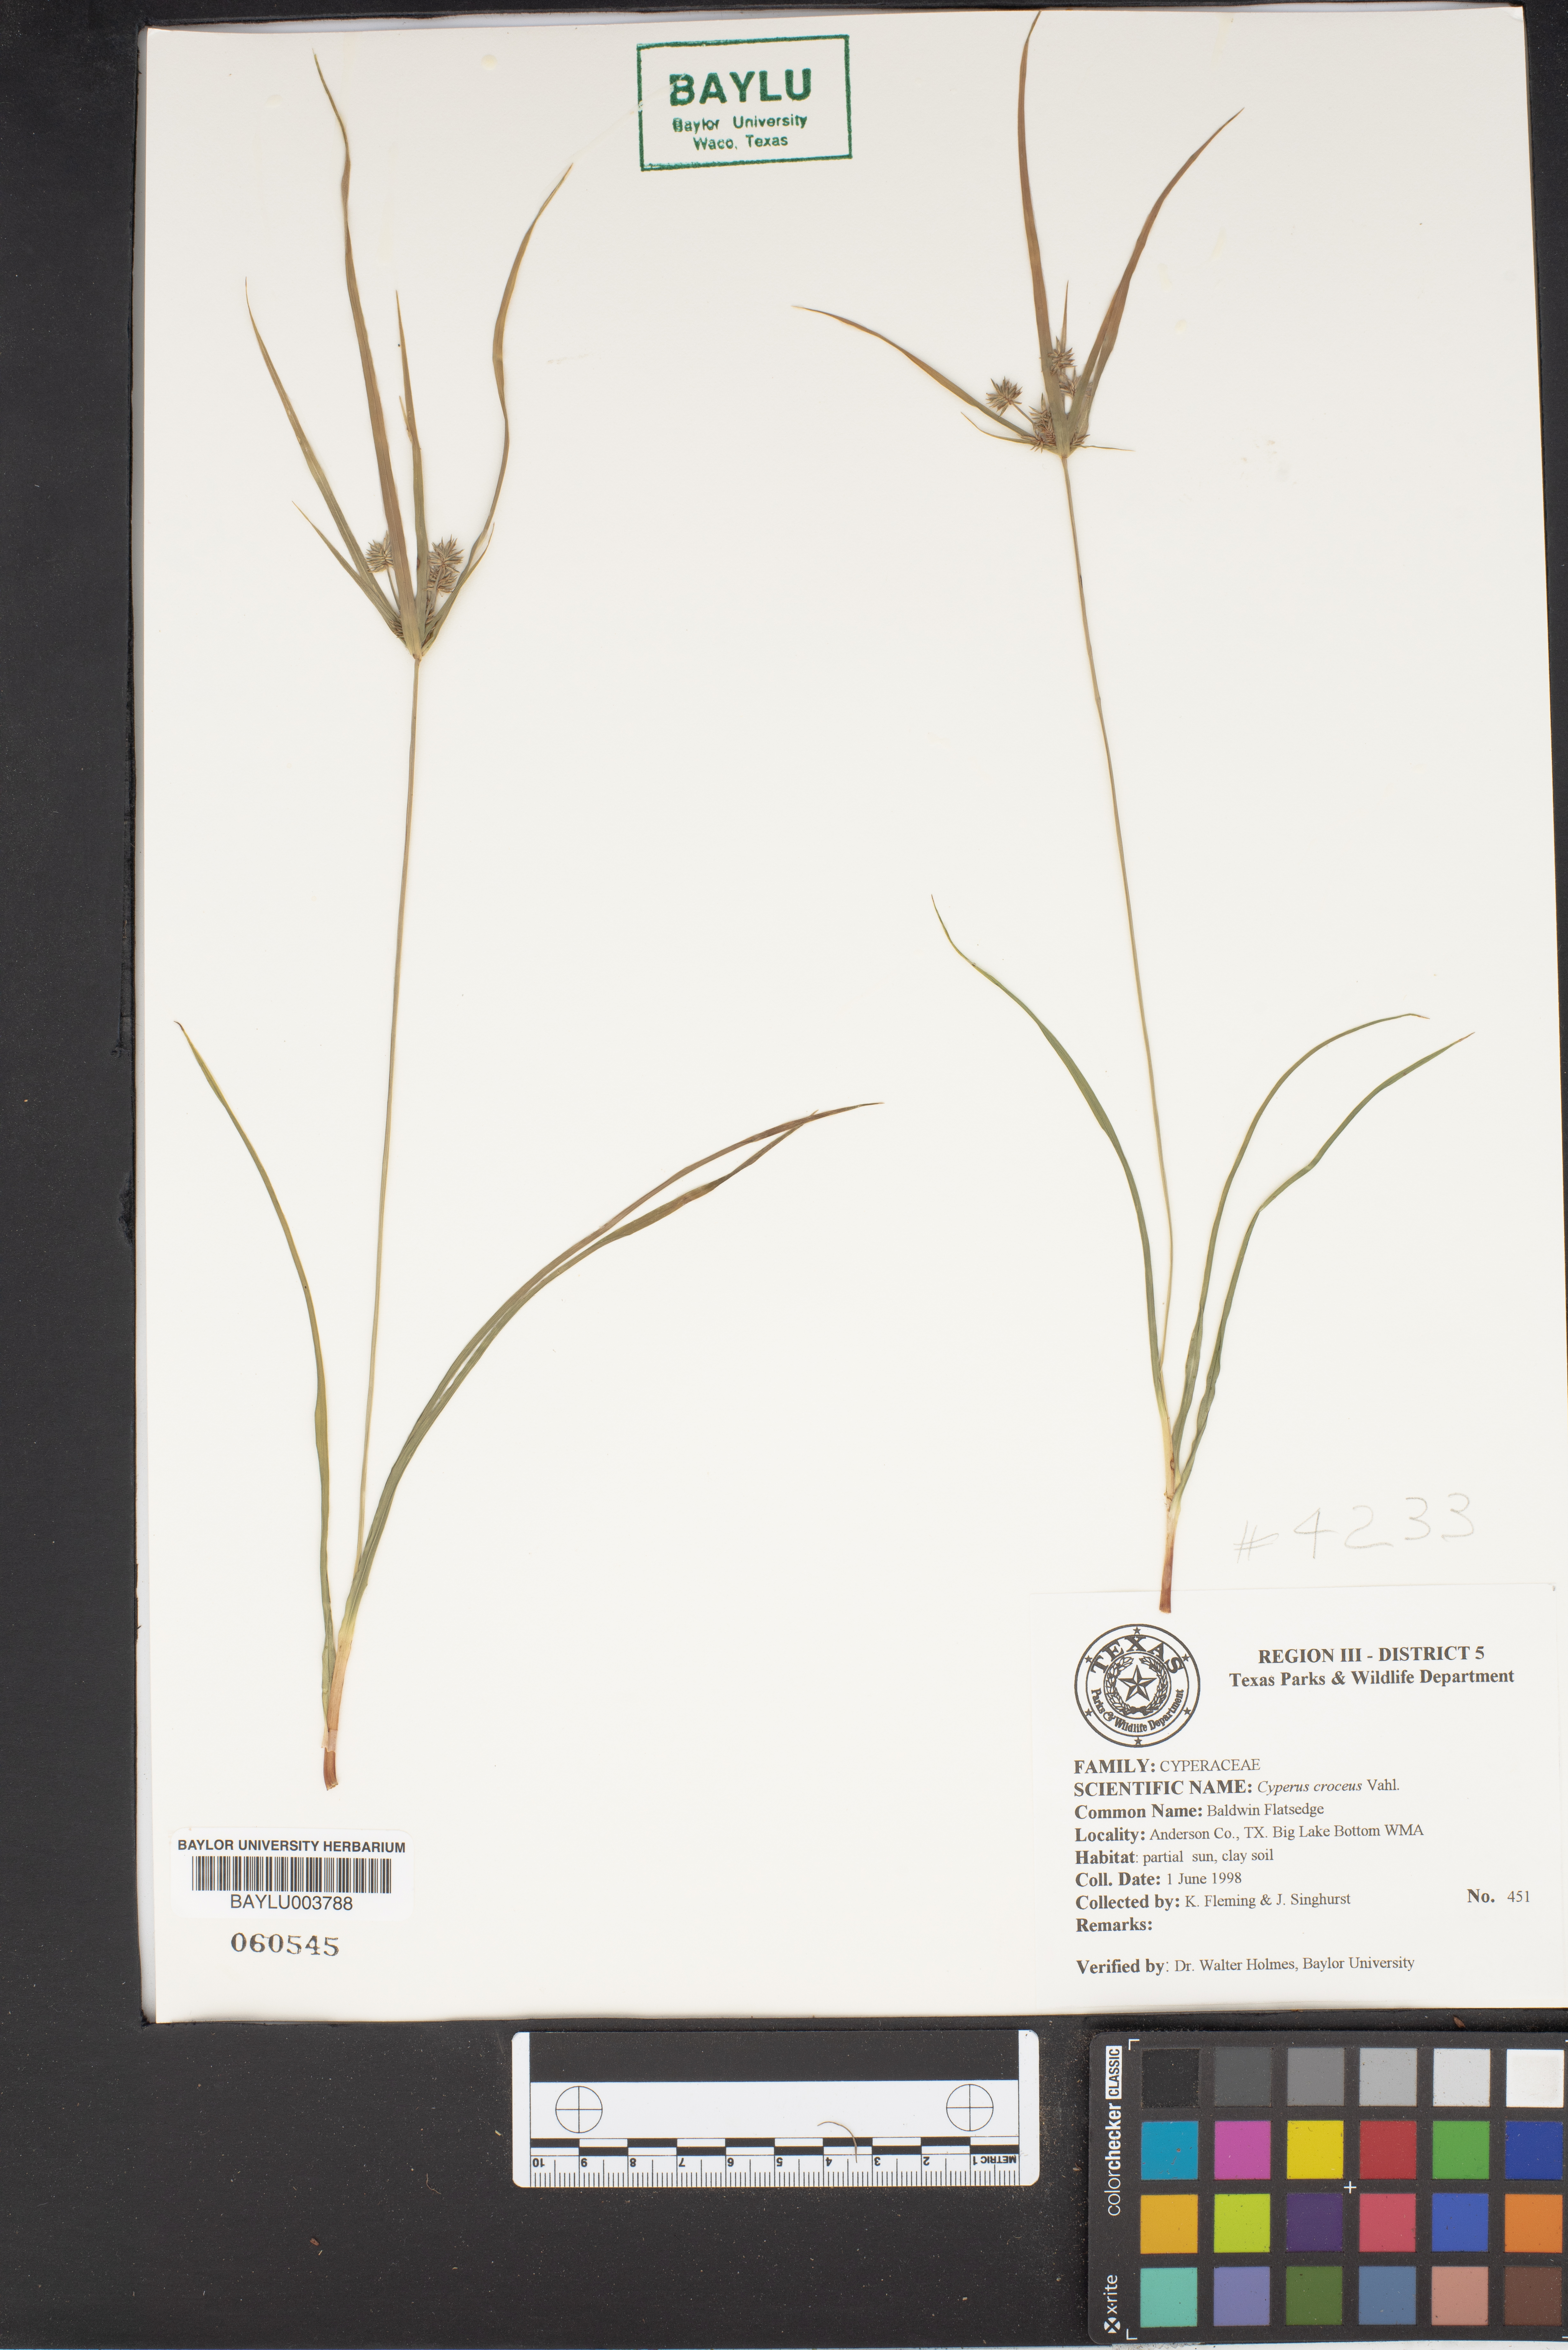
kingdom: Plantae
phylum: Tracheophyta
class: Liliopsida
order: Poales
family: Cyperaceae
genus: Cyperus
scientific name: Cyperus croceus
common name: Baldwin's flatsedge
